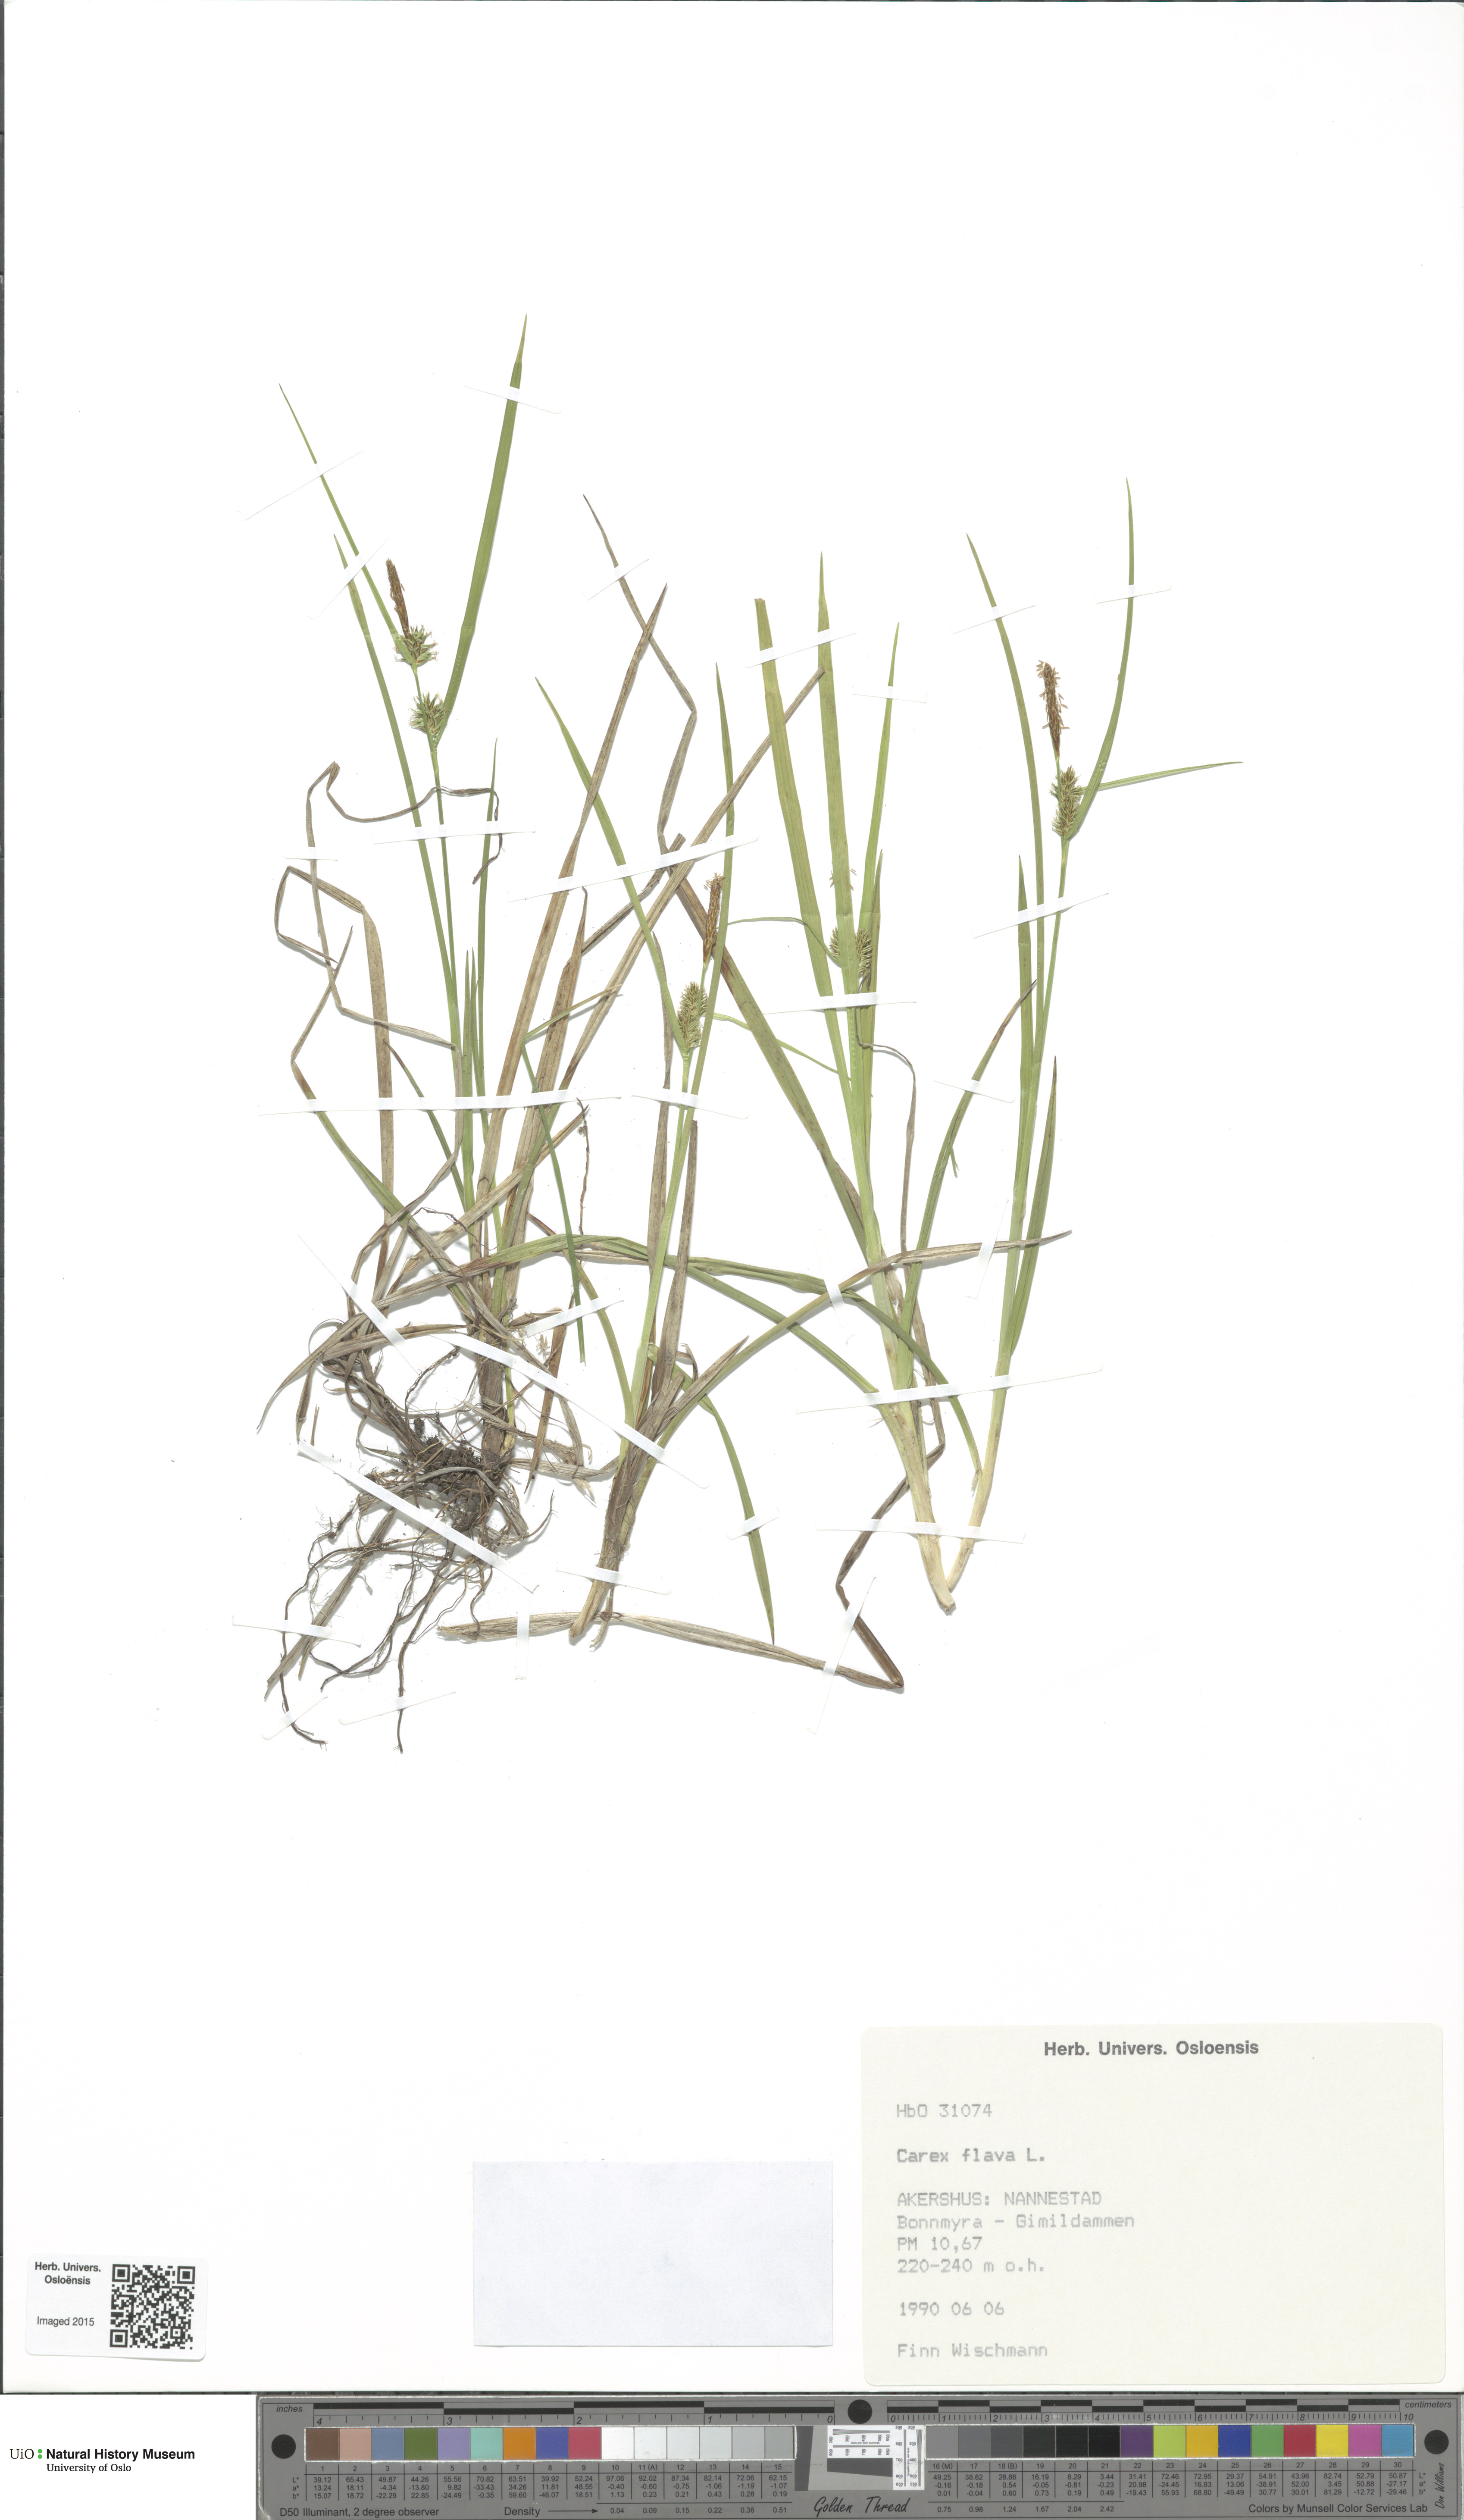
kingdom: Plantae
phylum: Tracheophyta
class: Liliopsida
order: Poales
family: Cyperaceae
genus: Carex
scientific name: Carex flava
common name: Large yellow-sedge
